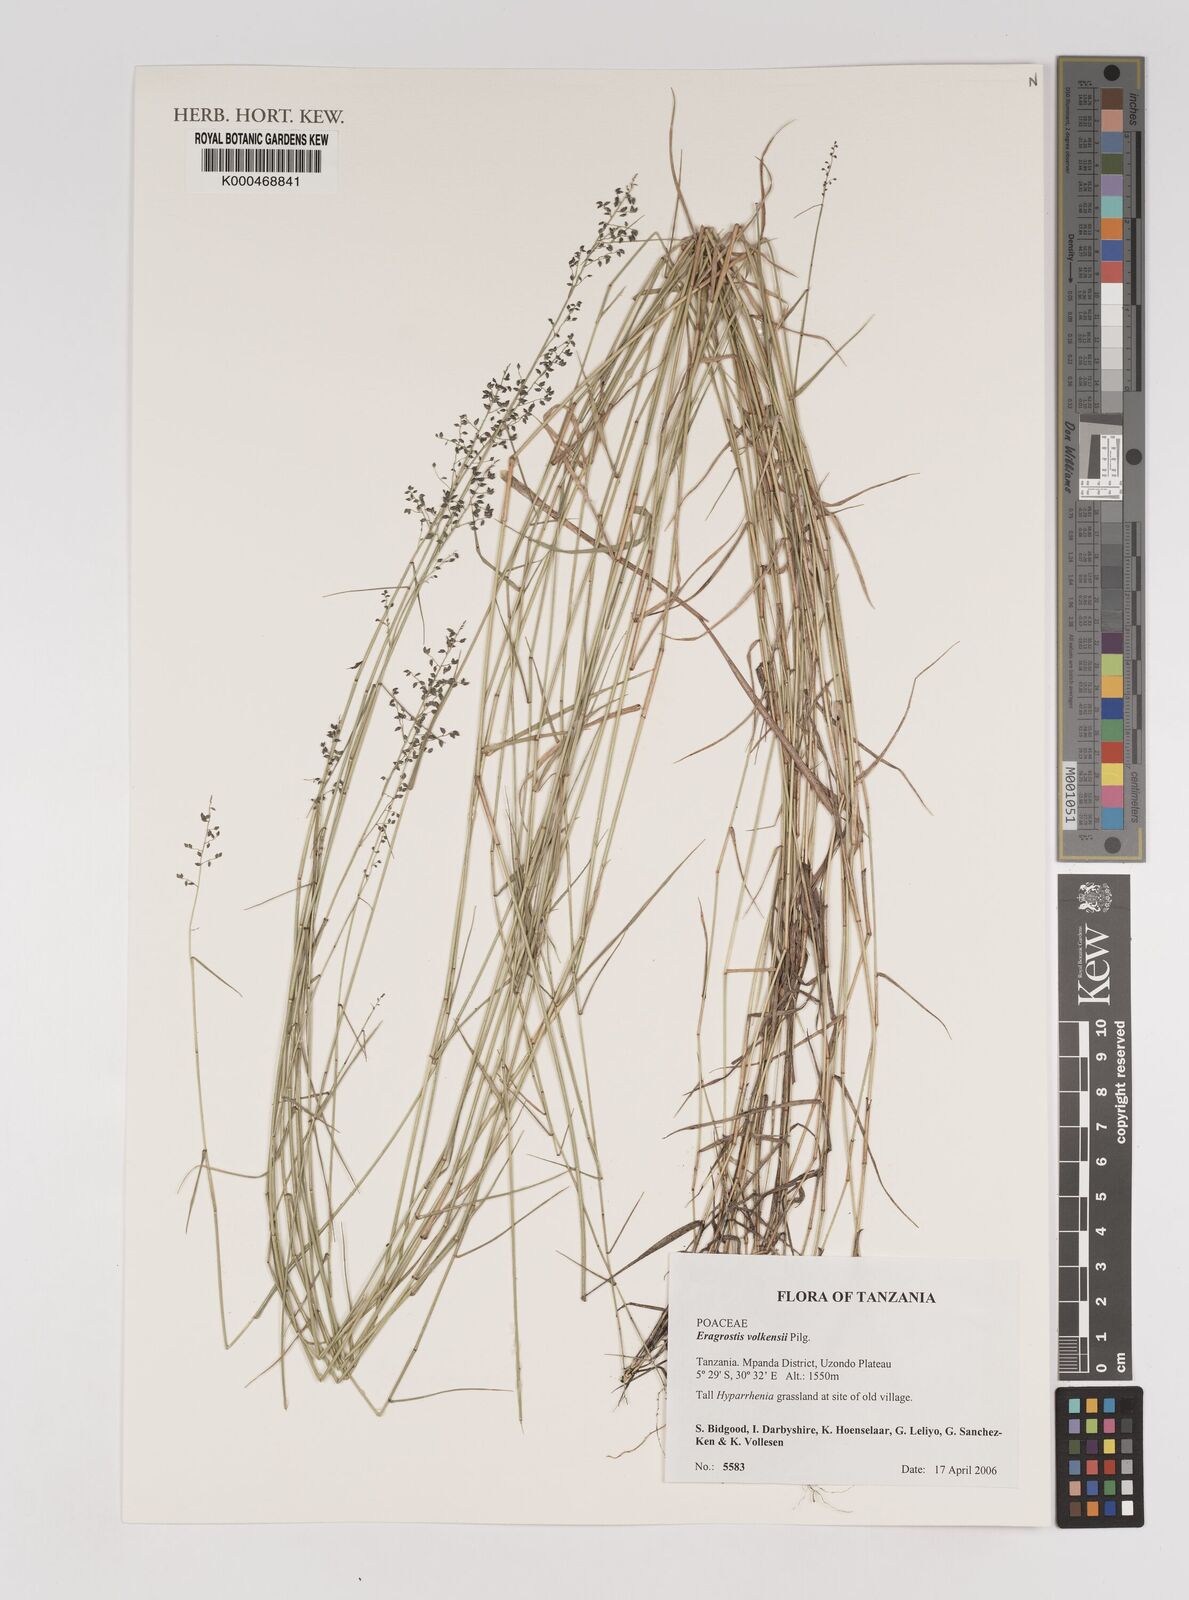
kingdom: Plantae
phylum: Tracheophyta
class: Liliopsida
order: Poales
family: Poaceae
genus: Eragrostis
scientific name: Eragrostis volkensii
